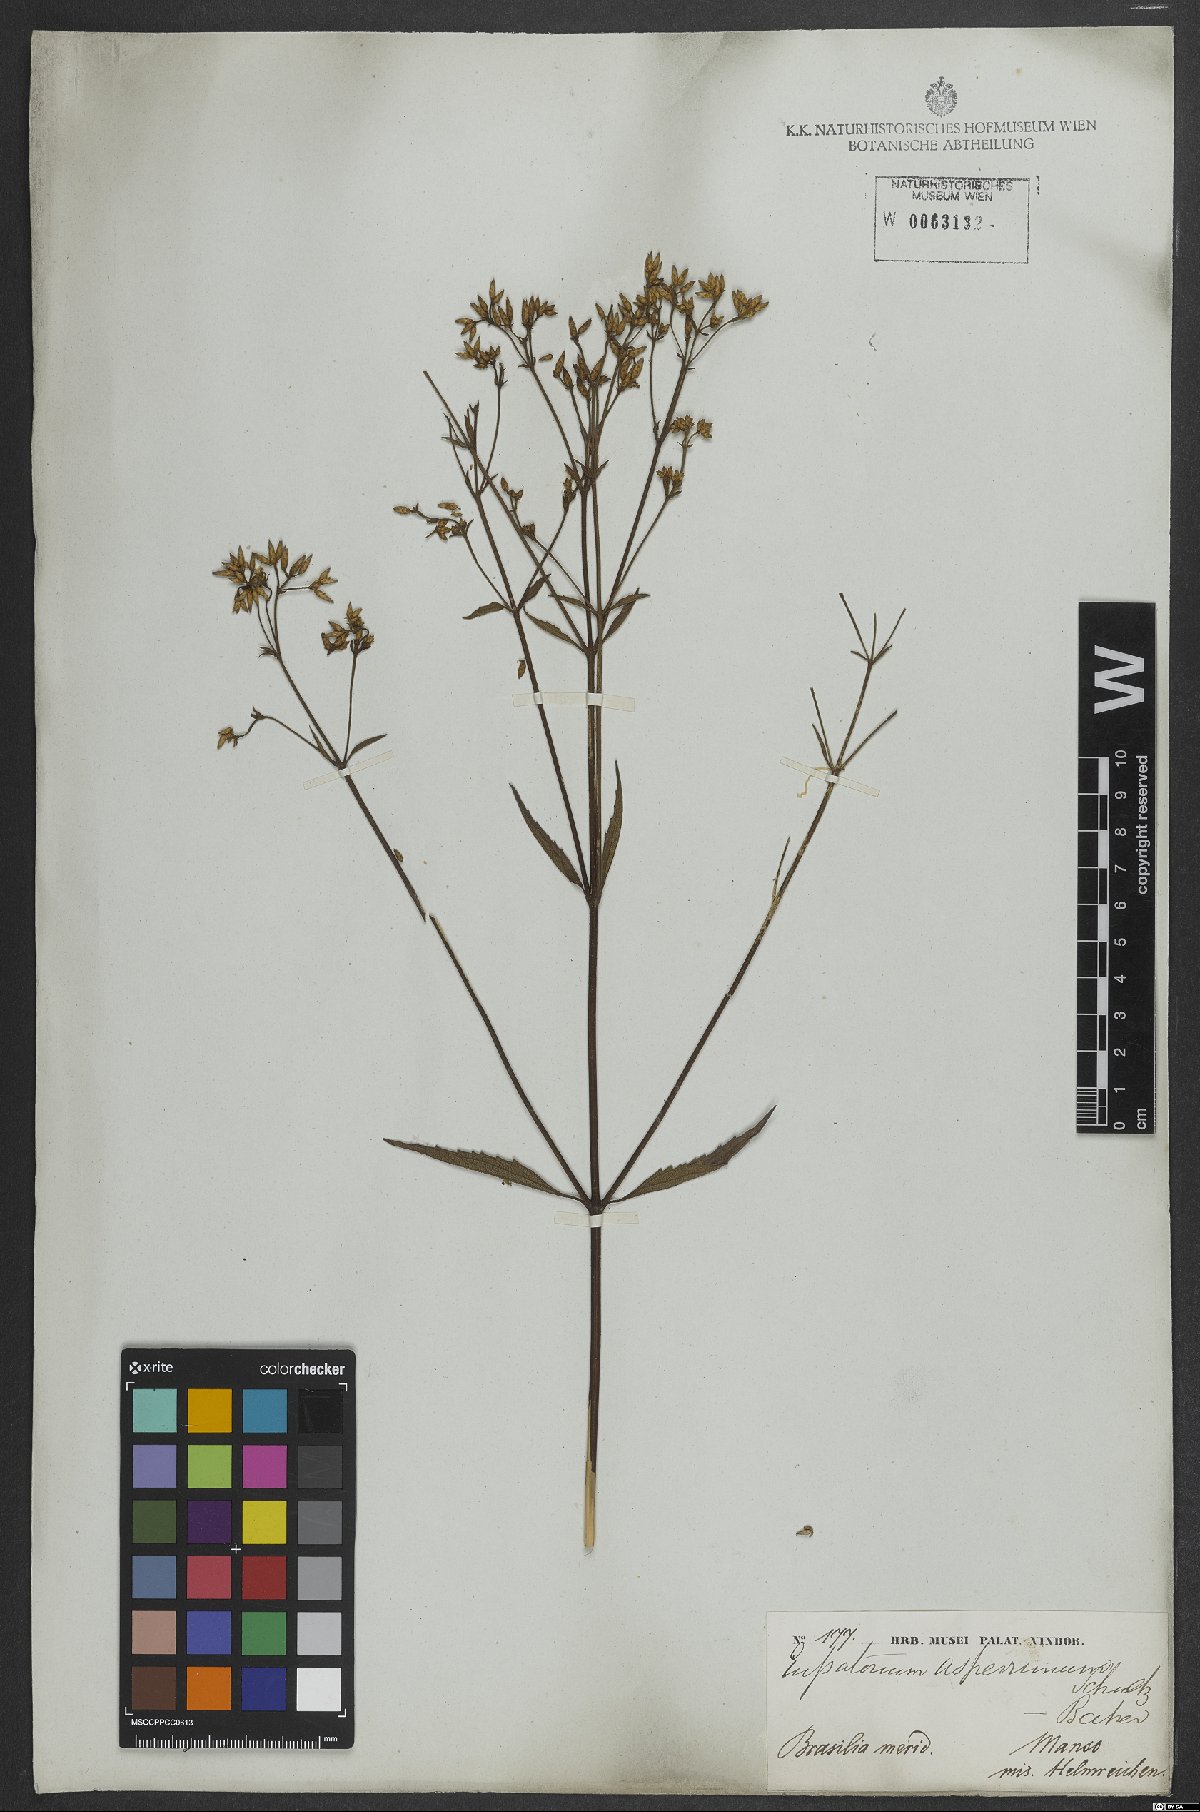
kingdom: Plantae
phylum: Tracheophyta
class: Magnoliopsida
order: Asterales
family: Asteraceae
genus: Chromolaena
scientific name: Chromolaena asperrima
